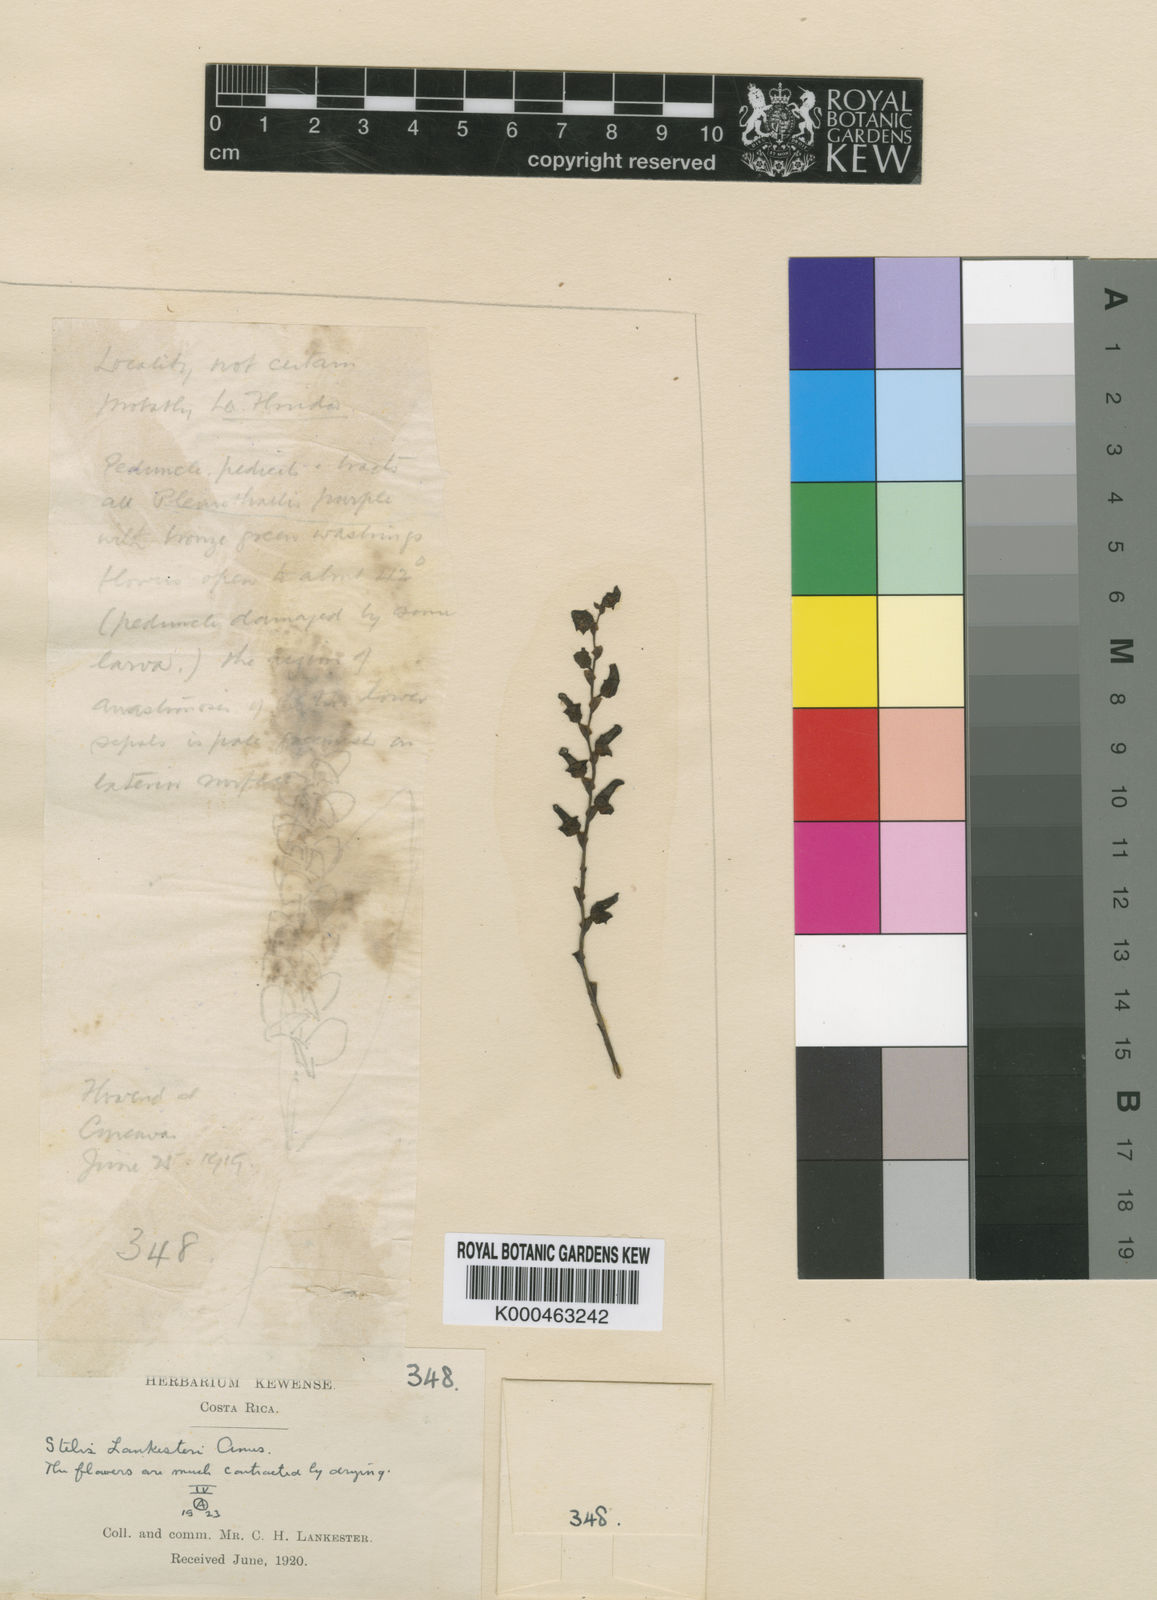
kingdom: Plantae
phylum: Tracheophyta
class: Liliopsida
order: Asparagales
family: Orchidaceae
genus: Stelis
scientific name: Stelis lankesteri
